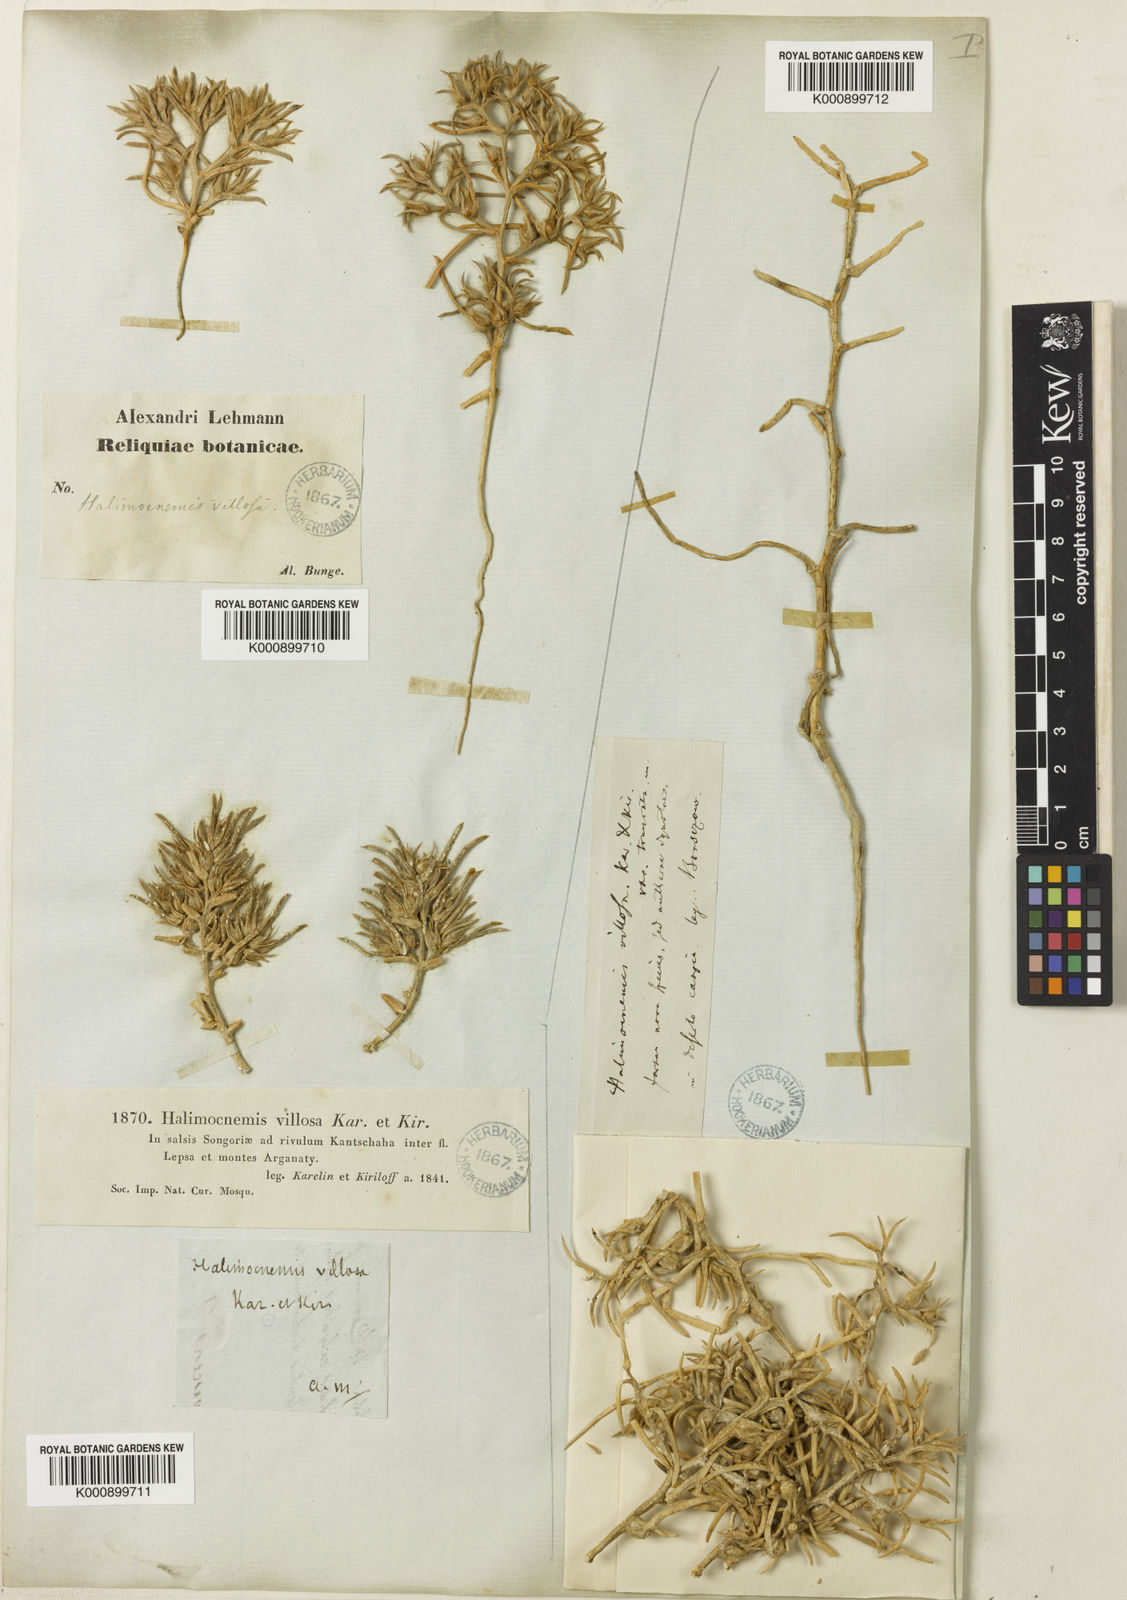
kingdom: Plantae
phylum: Tracheophyta
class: Magnoliopsida
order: Caryophyllales
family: Amaranthaceae
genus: Halimocnemis
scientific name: Halimocnemis villosa
